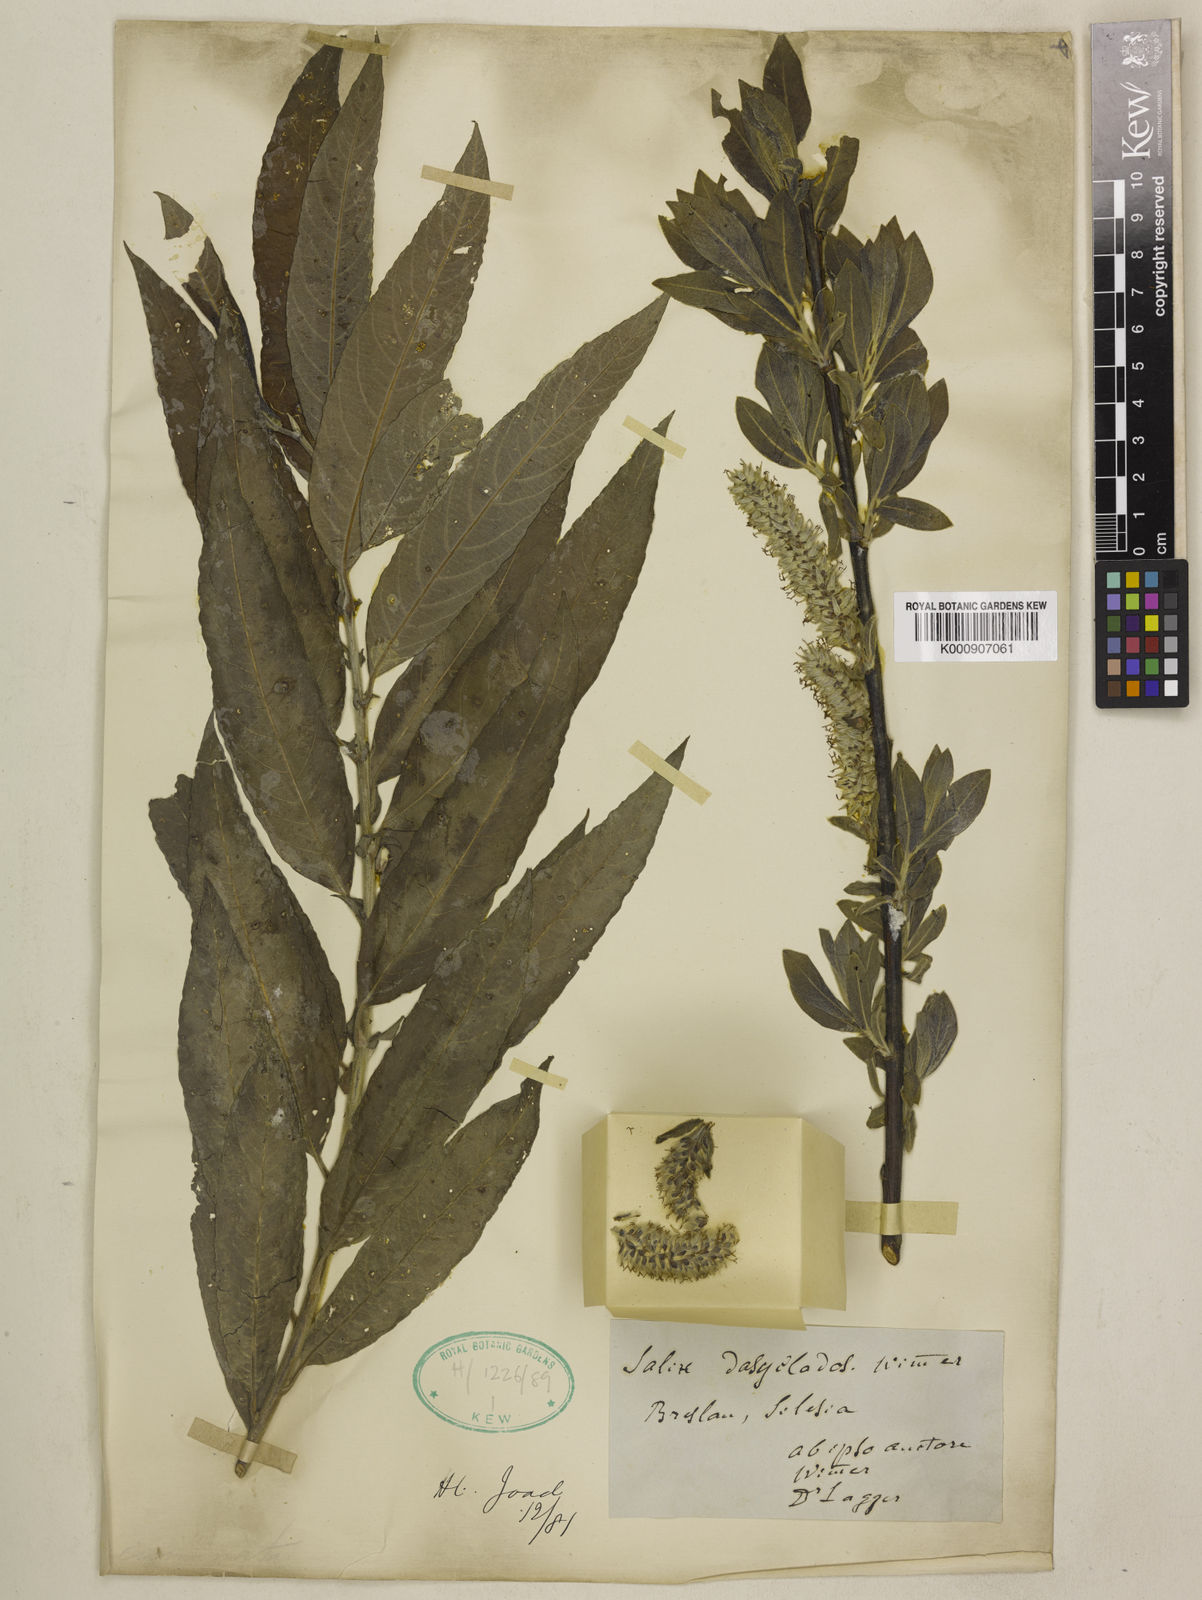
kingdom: Plantae
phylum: Tracheophyta
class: Magnoliopsida
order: Malpighiales
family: Salicaceae
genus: Salix
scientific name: Salix gmelinii
